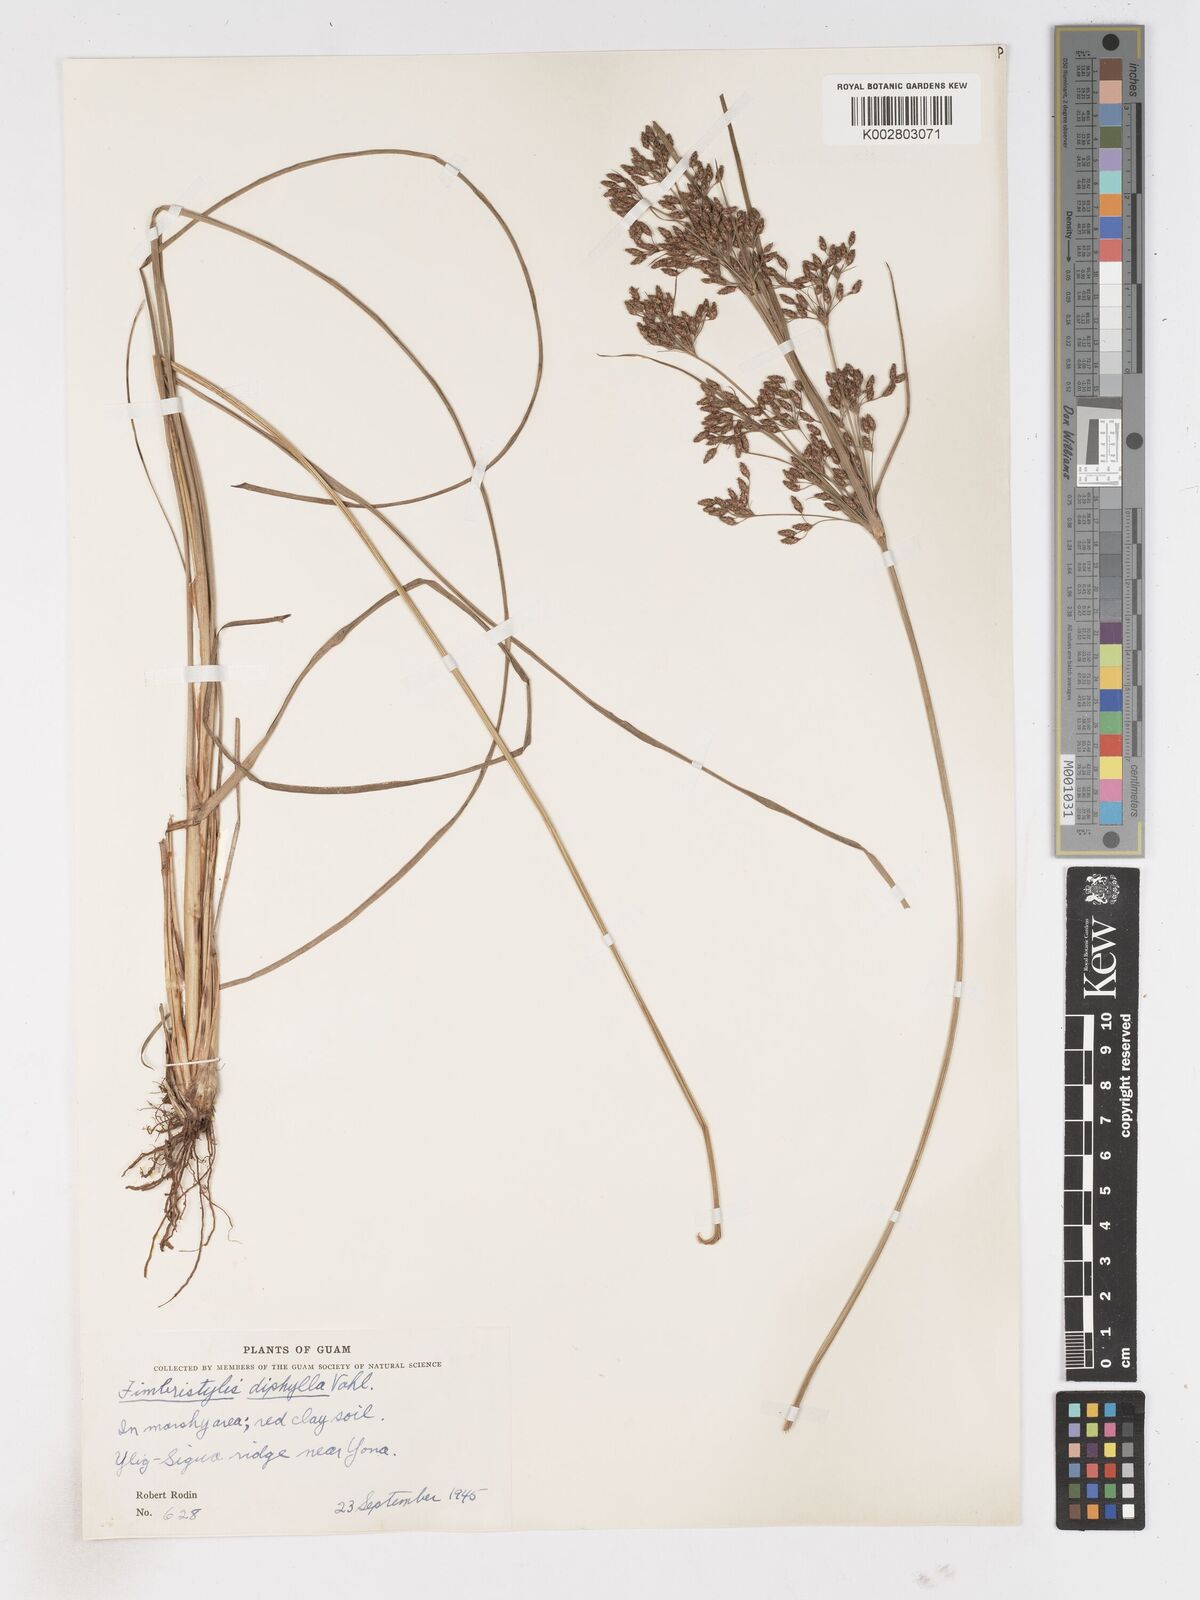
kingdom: Plantae
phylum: Tracheophyta
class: Liliopsida
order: Poales
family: Cyperaceae
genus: Fimbristylis
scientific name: Fimbristylis dichotoma
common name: Forked fimbry
